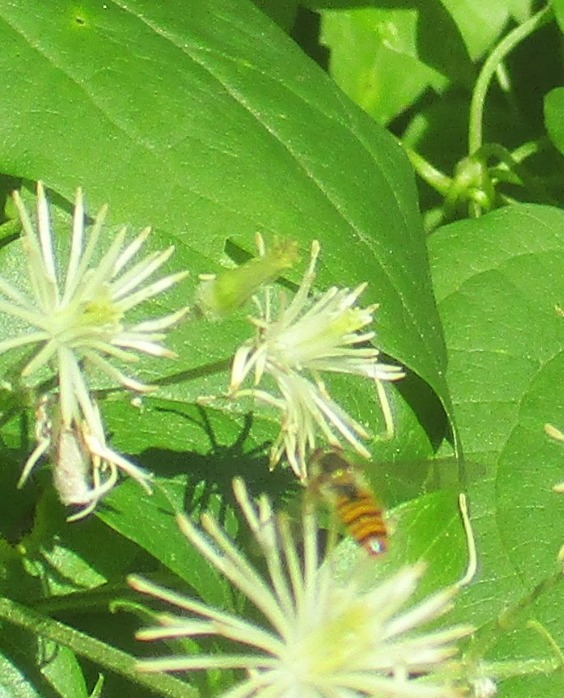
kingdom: Animalia
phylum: Arthropoda
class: Insecta
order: Diptera
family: Syrphidae
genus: Episyrphus
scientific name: Episyrphus balteatus
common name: Dobbeltbåndet svirreflue
